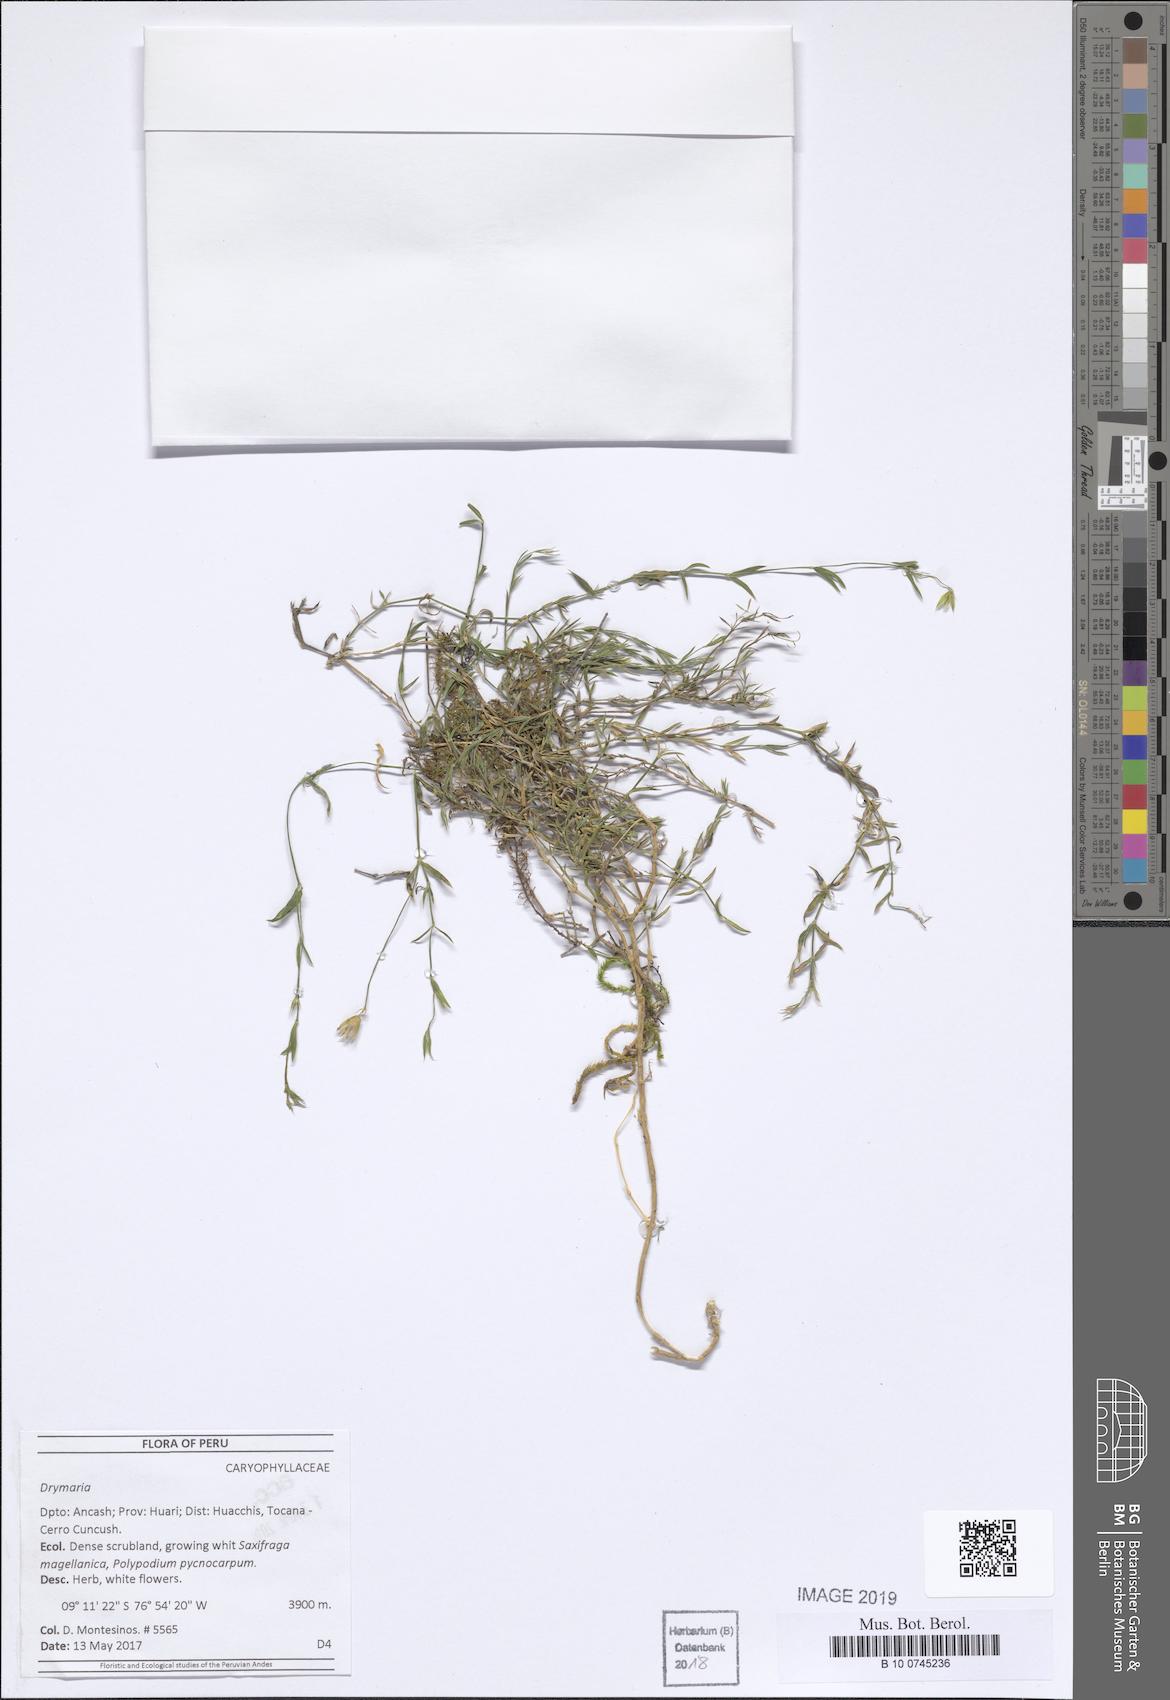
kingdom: Plantae
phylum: Tracheophyta
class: Magnoliopsida
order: Caryophyllales
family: Caryophyllaceae
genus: Drymaria
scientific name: Drymaria
